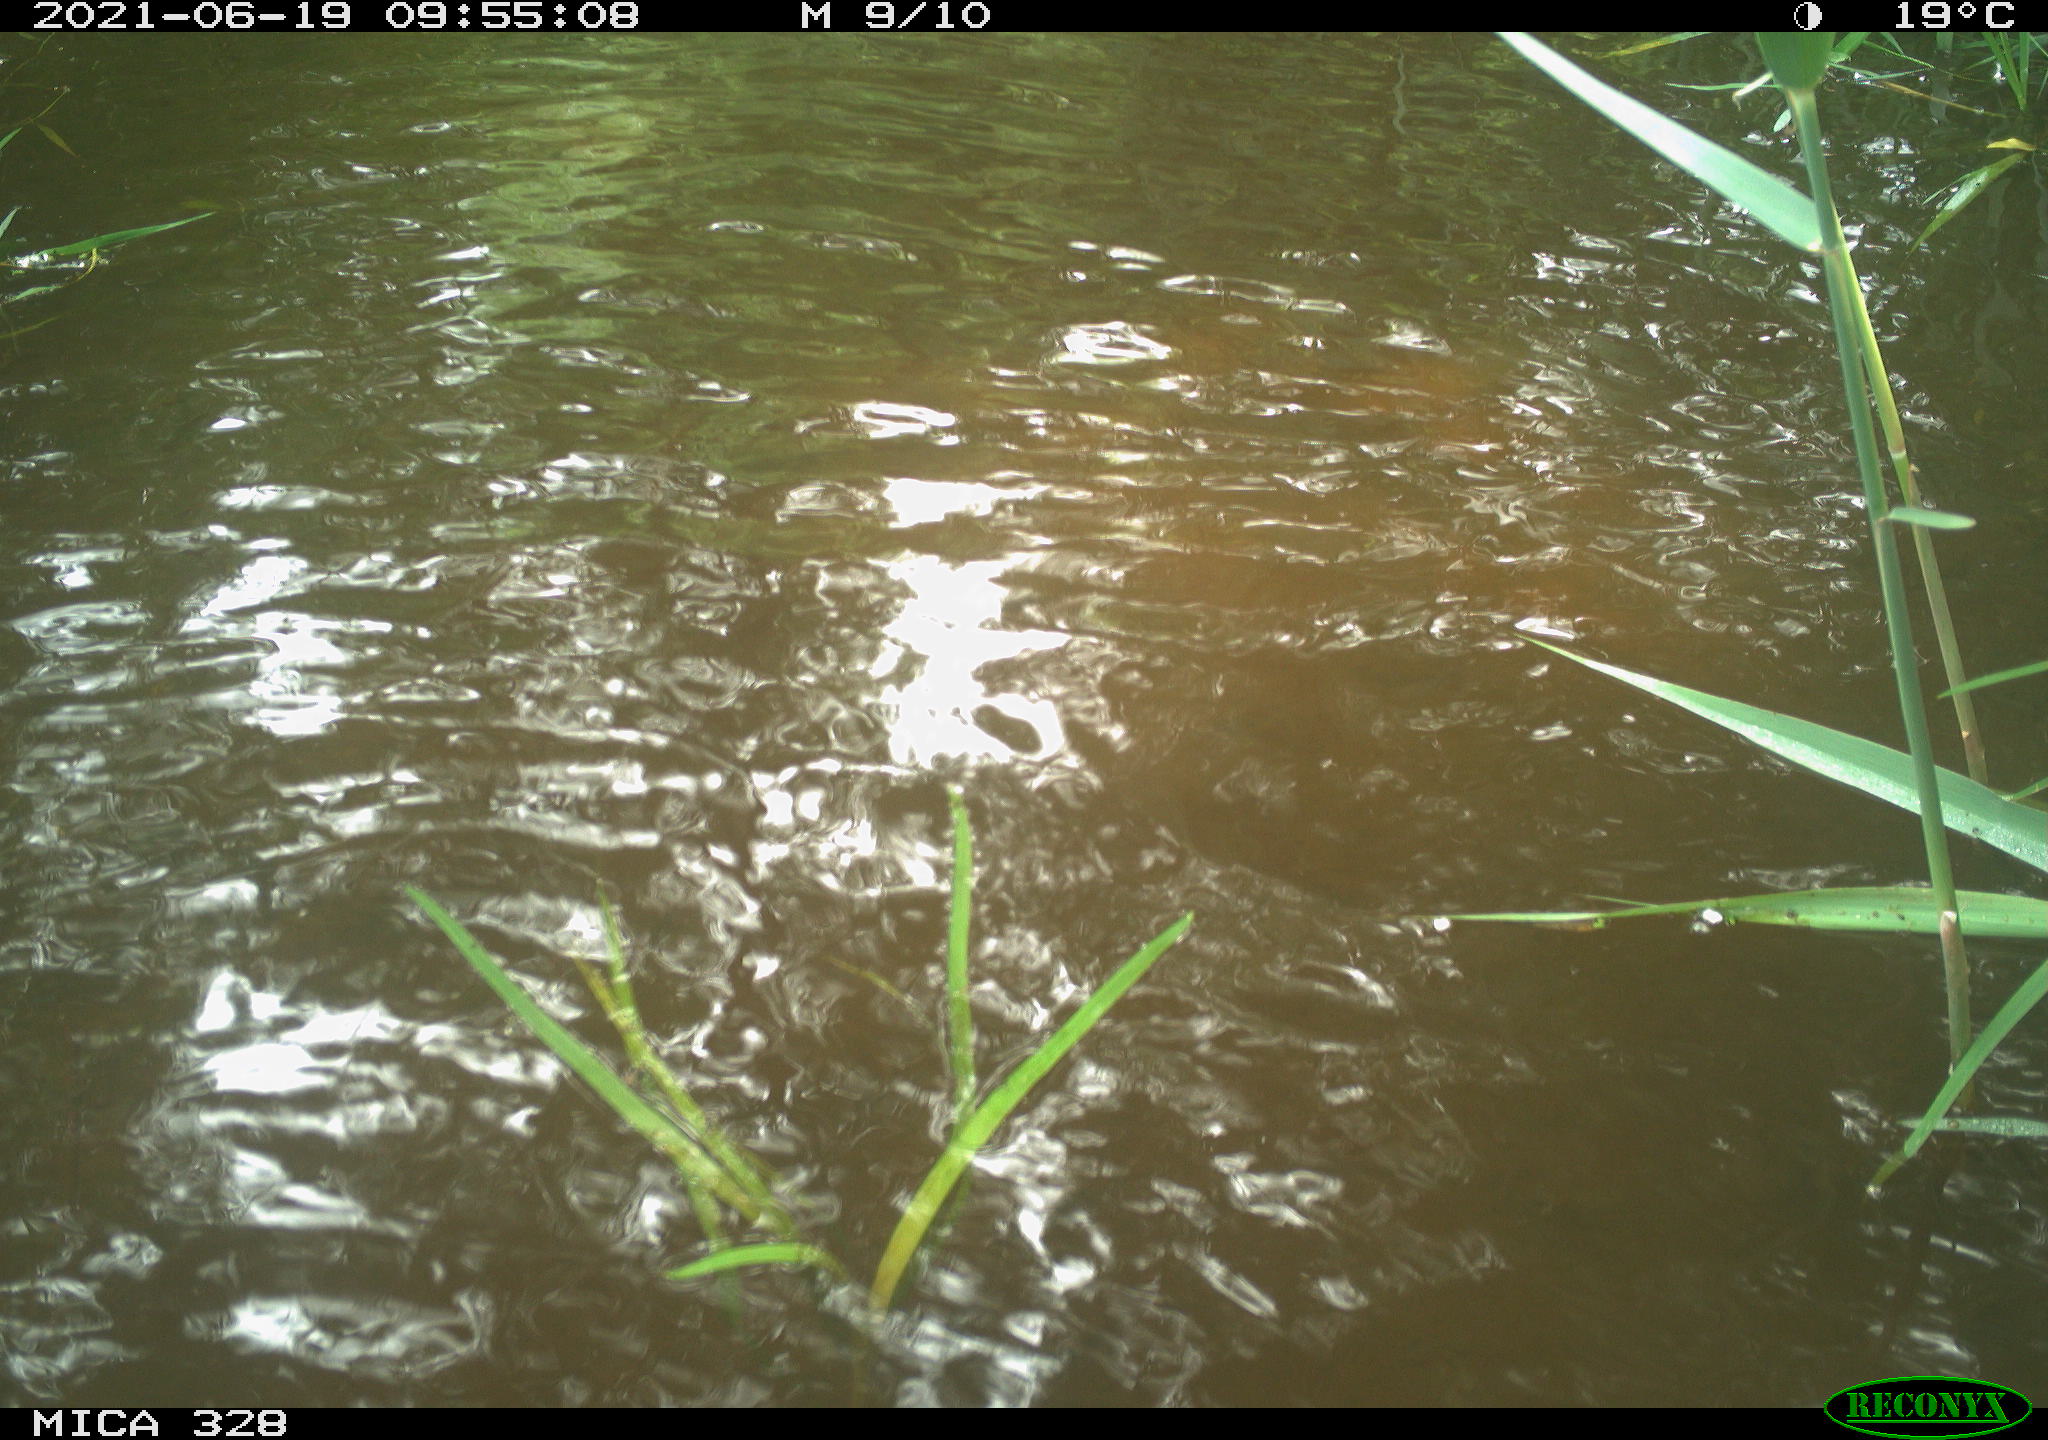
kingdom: Animalia
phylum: Chordata
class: Mammalia
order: Rodentia
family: Cricetidae
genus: Ondatra
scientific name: Ondatra zibethicus
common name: Muskrat
